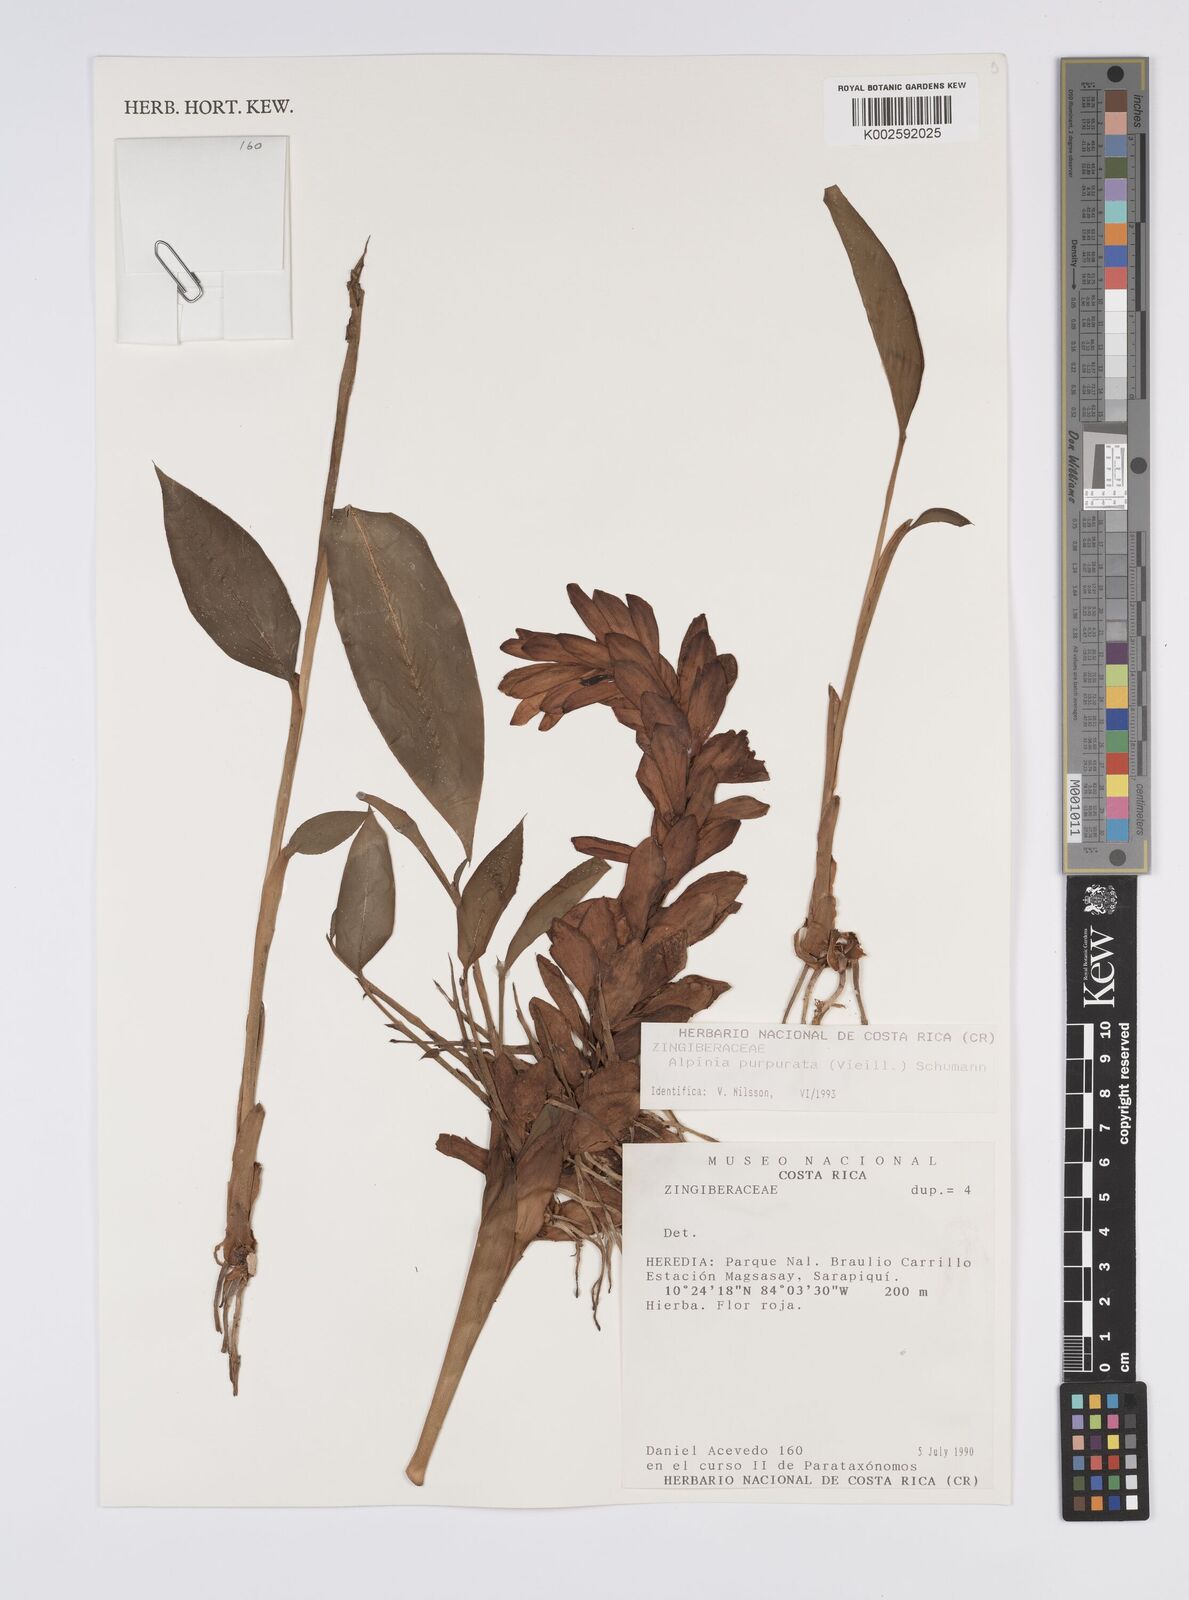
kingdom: Plantae
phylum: Tracheophyta
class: Liliopsida
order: Zingiberales
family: Zingiberaceae
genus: Alpinia
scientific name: Alpinia purpurata
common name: Red ginger
